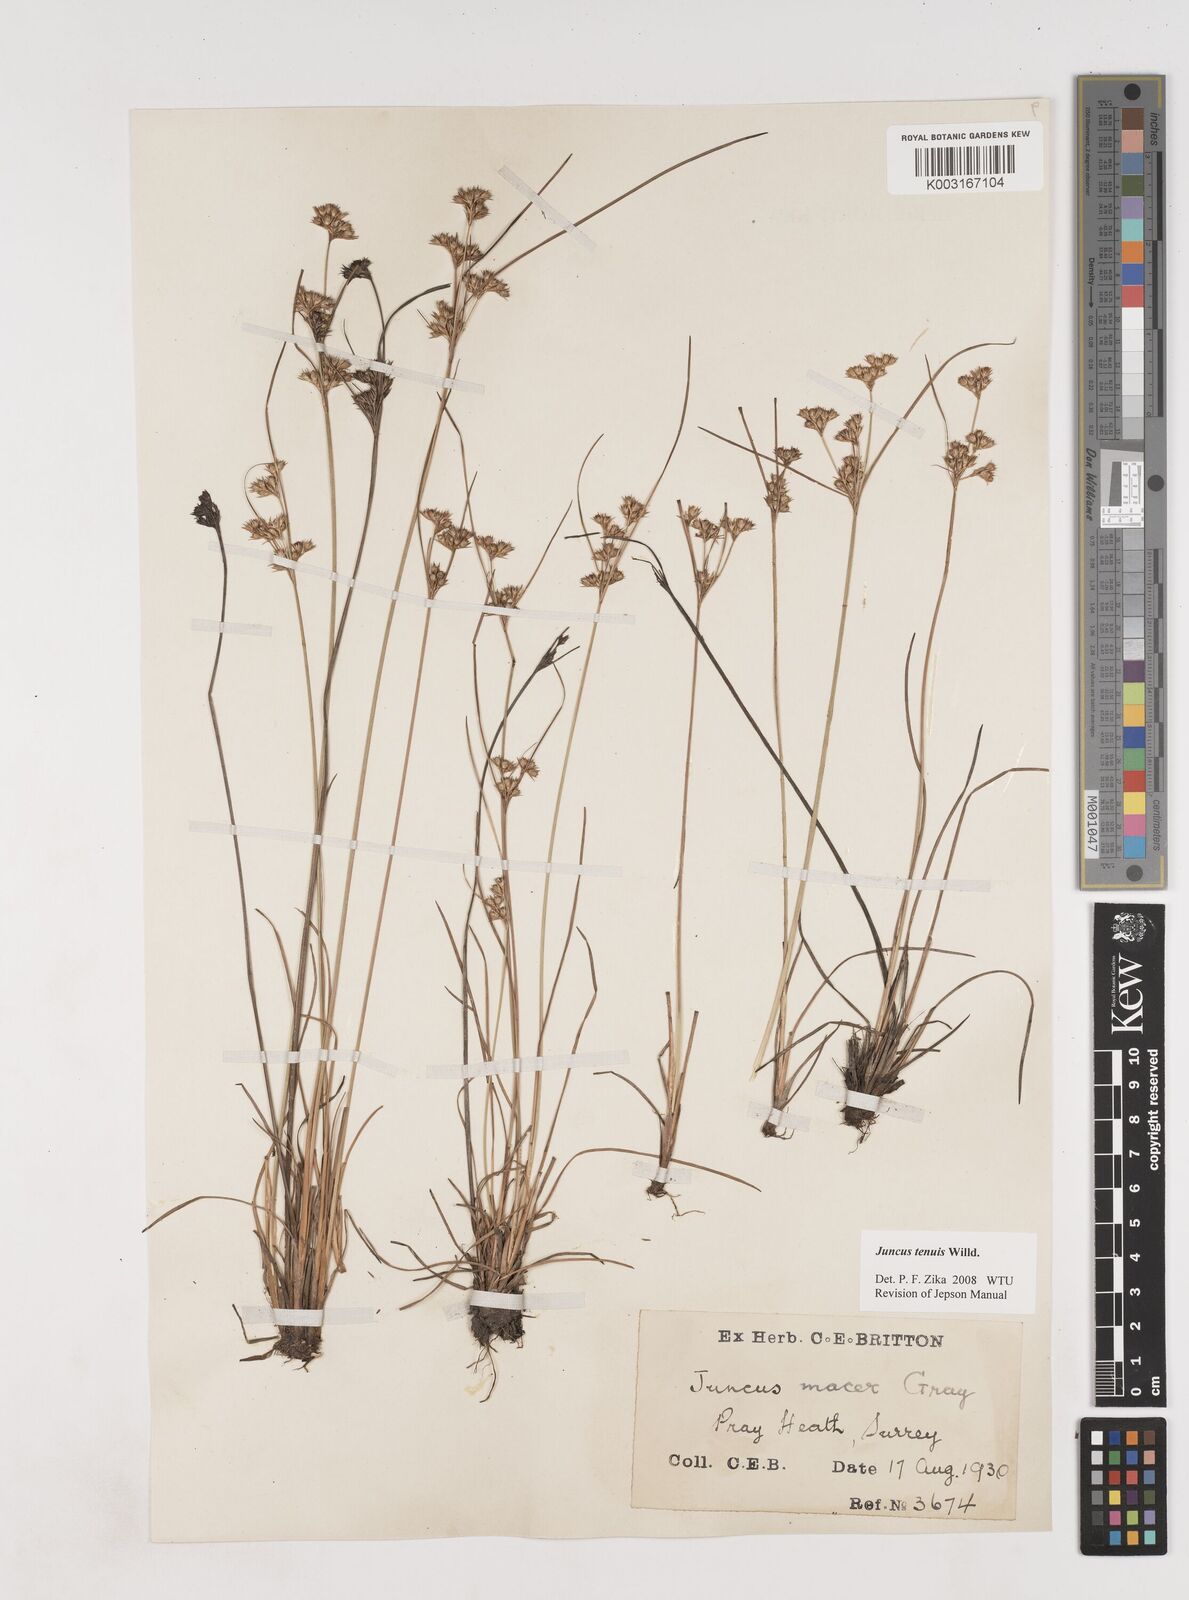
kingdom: Plantae
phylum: Tracheophyta
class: Liliopsida
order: Poales
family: Juncaceae
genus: Juncus
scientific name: Juncus occidentalis
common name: Western rush
